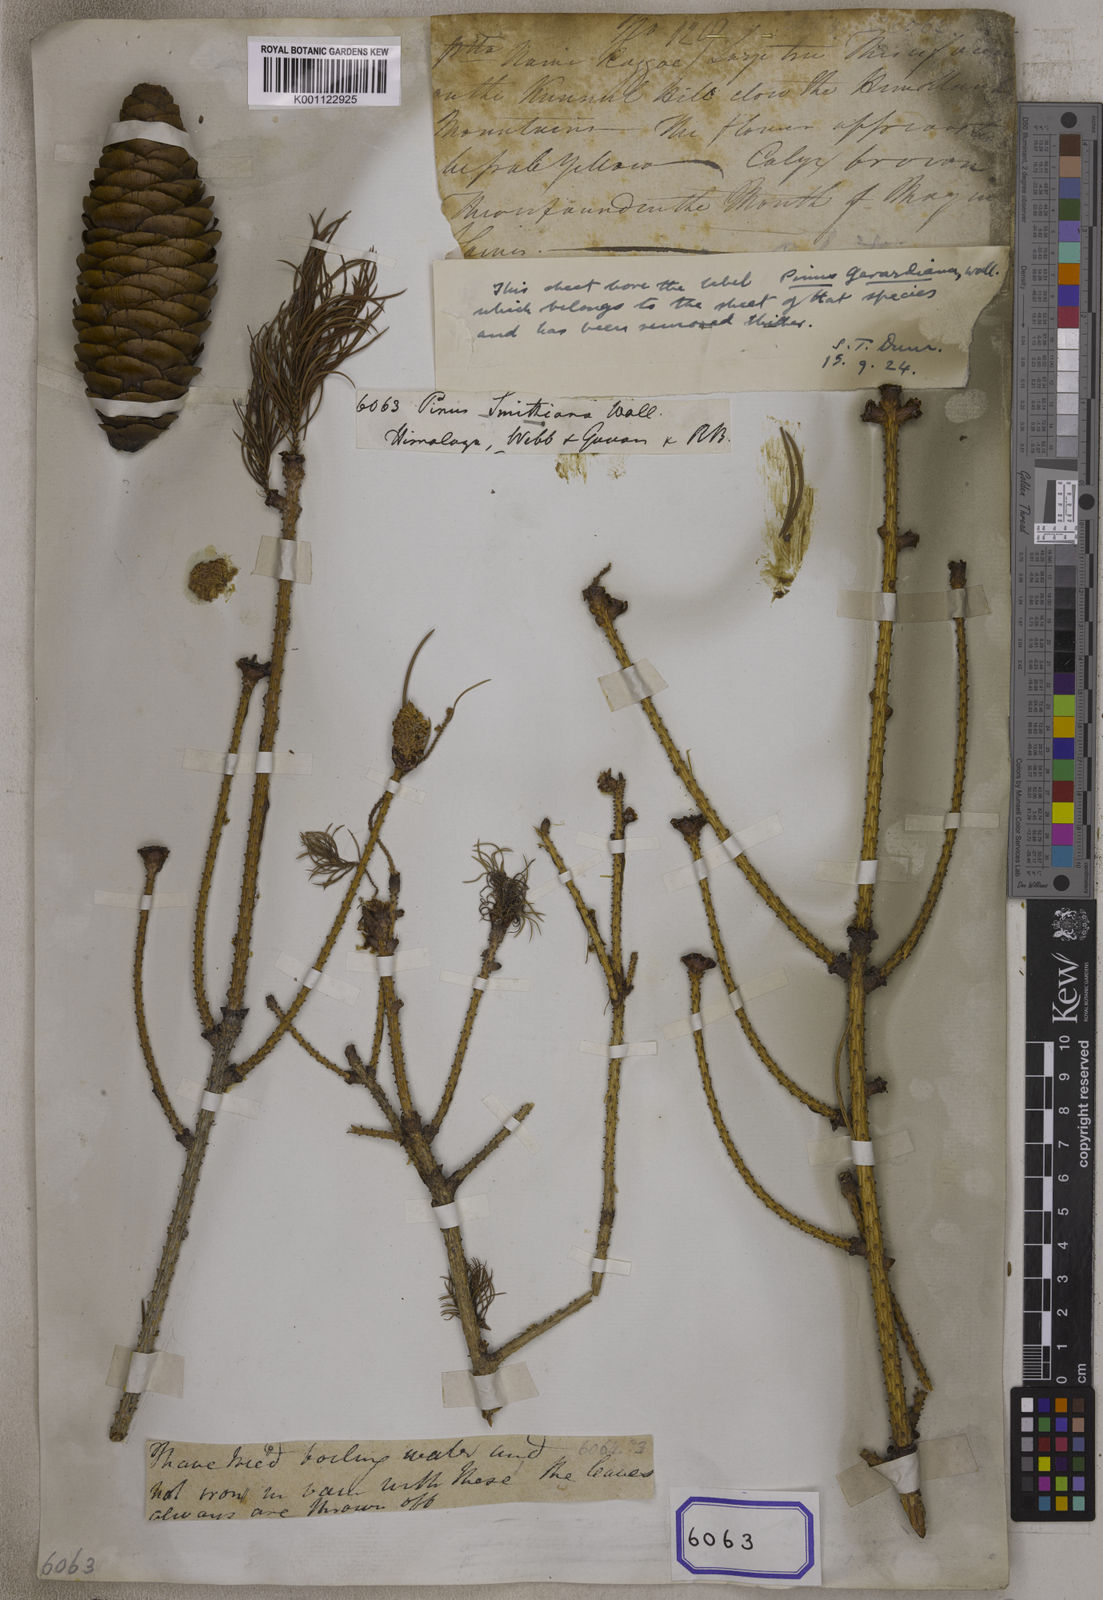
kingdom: Plantae
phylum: Tracheophyta
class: Pinopsida
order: Pinales
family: Pinaceae
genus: Picea
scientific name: Picea smithiana
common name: Morinda spruce
